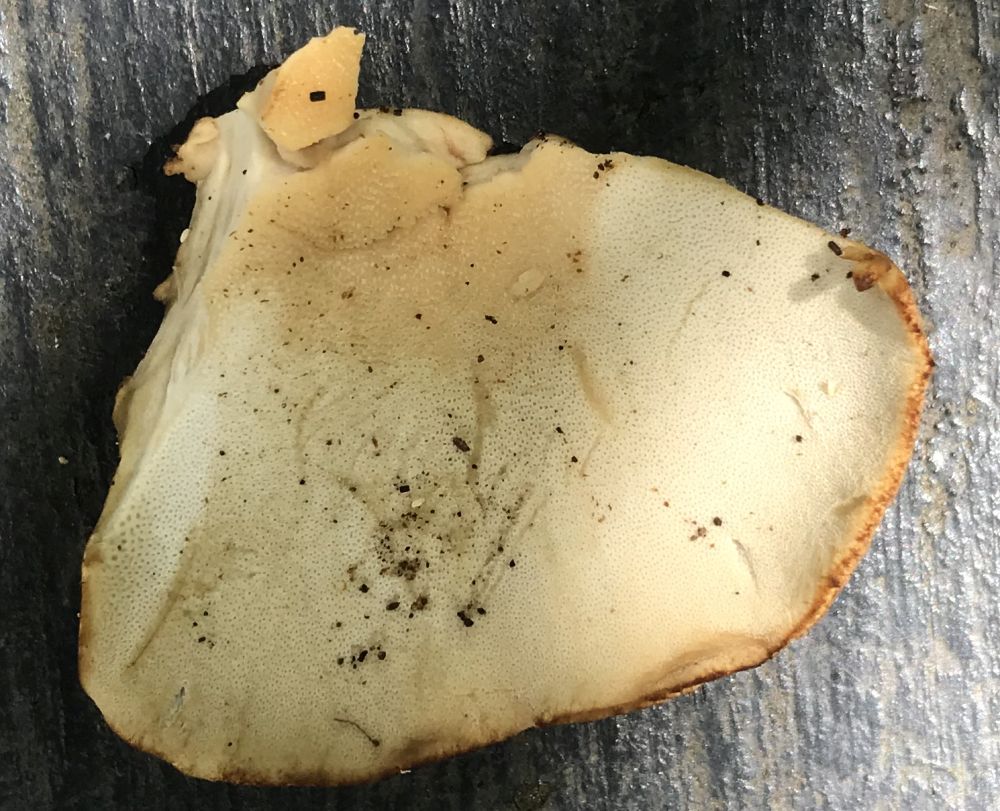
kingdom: Fungi
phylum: Basidiomycota
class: Agaricomycetes
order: Polyporales
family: Polyporaceae
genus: Cerioporus
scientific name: Cerioporus varius
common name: foranderlig stilkporesvamp
